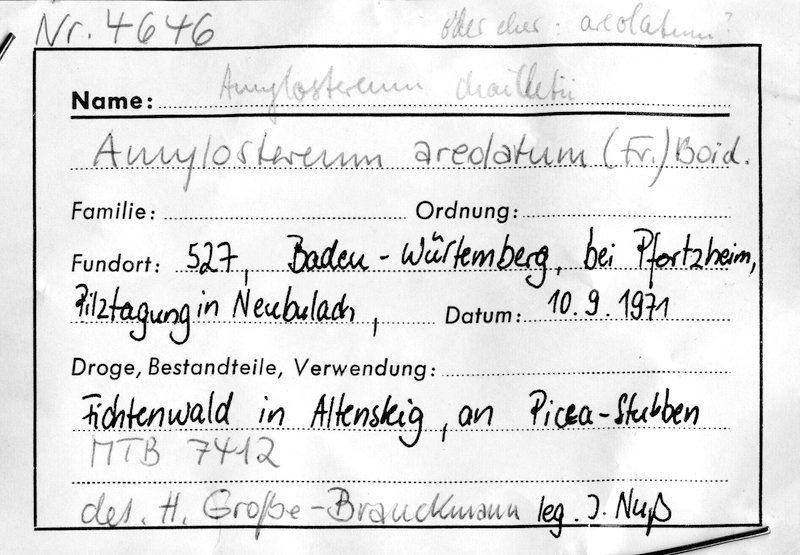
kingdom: Fungi
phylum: Basidiomycota
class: Agaricomycetes
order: Russulales
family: Echinodontiaceae
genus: Amylostereum
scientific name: Amylostereum areolatum
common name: White rot fungus
